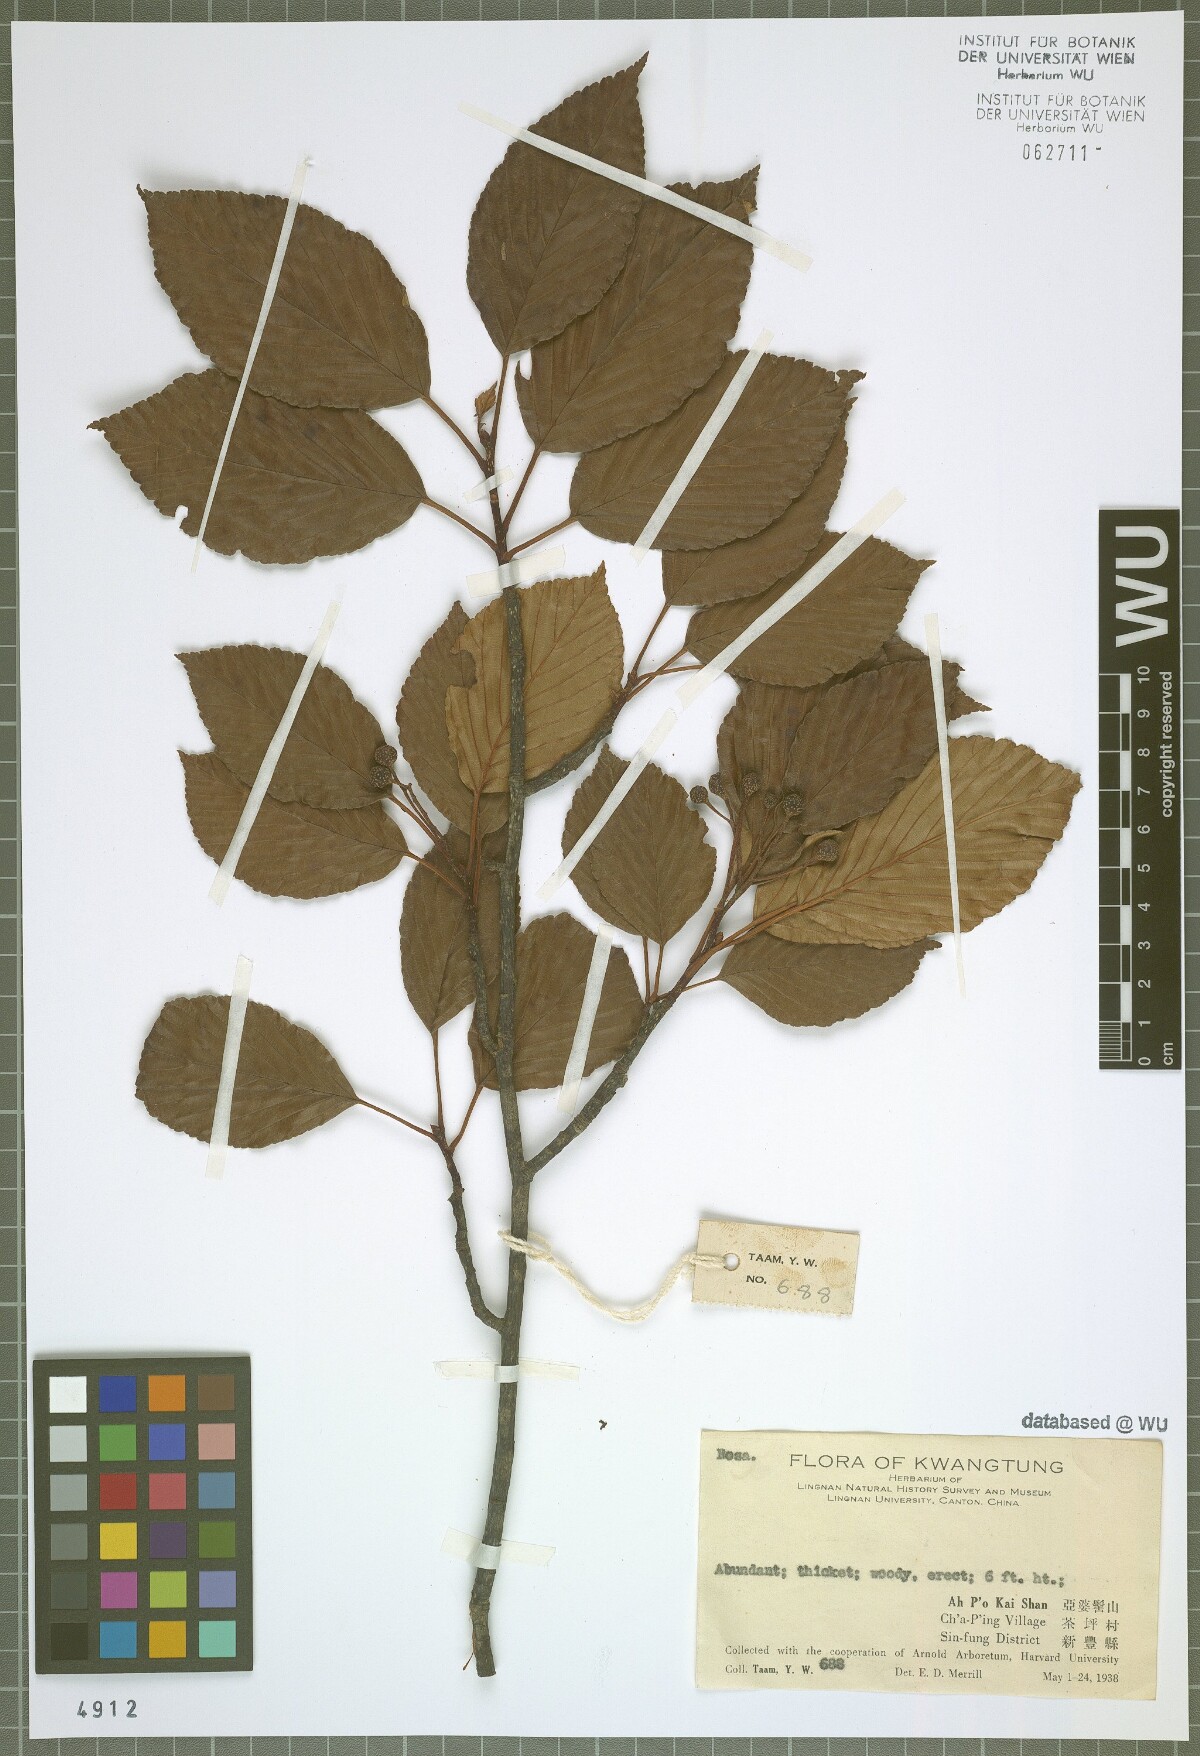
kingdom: Plantae
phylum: Tracheophyta
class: Magnoliopsida
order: Rosales
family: Rosaceae
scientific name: Rosaceae
